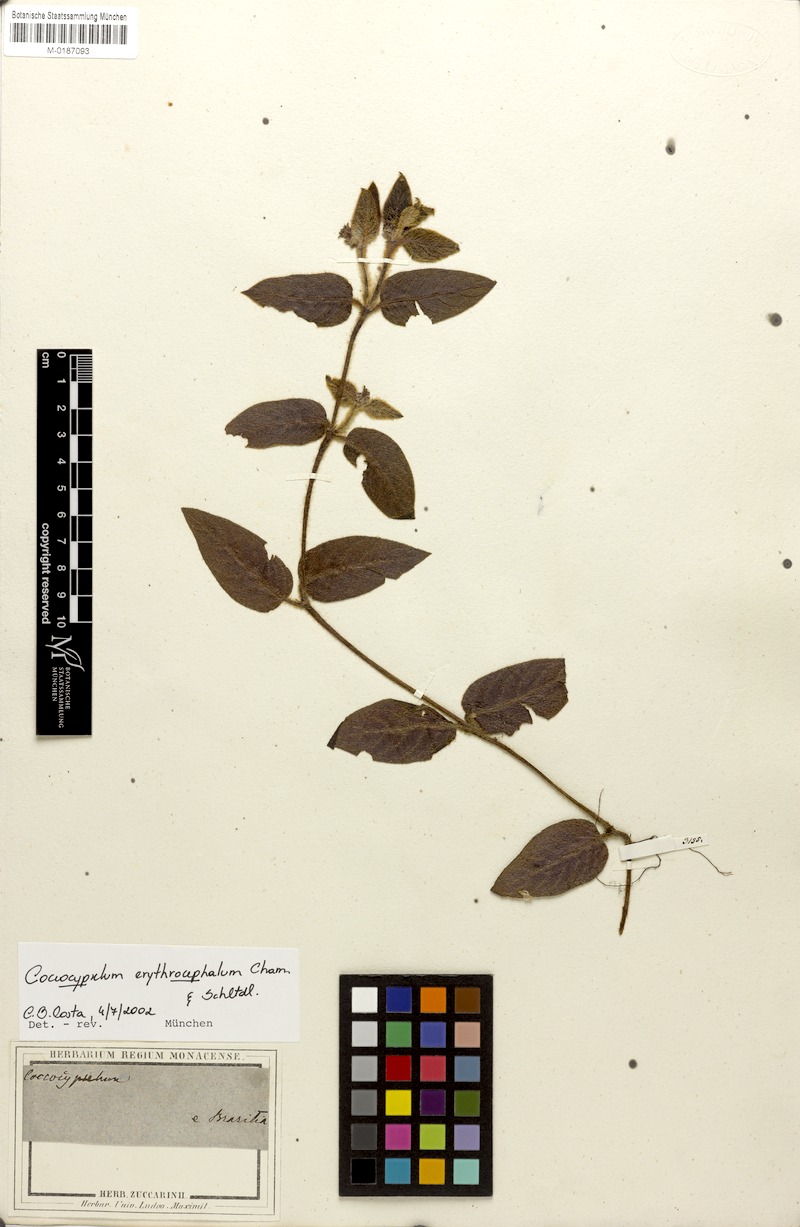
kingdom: Plantae
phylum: Tracheophyta
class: Magnoliopsida
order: Gentianales
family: Rubiaceae
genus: Coccocypselum
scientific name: Coccocypselum erythrocephalum
